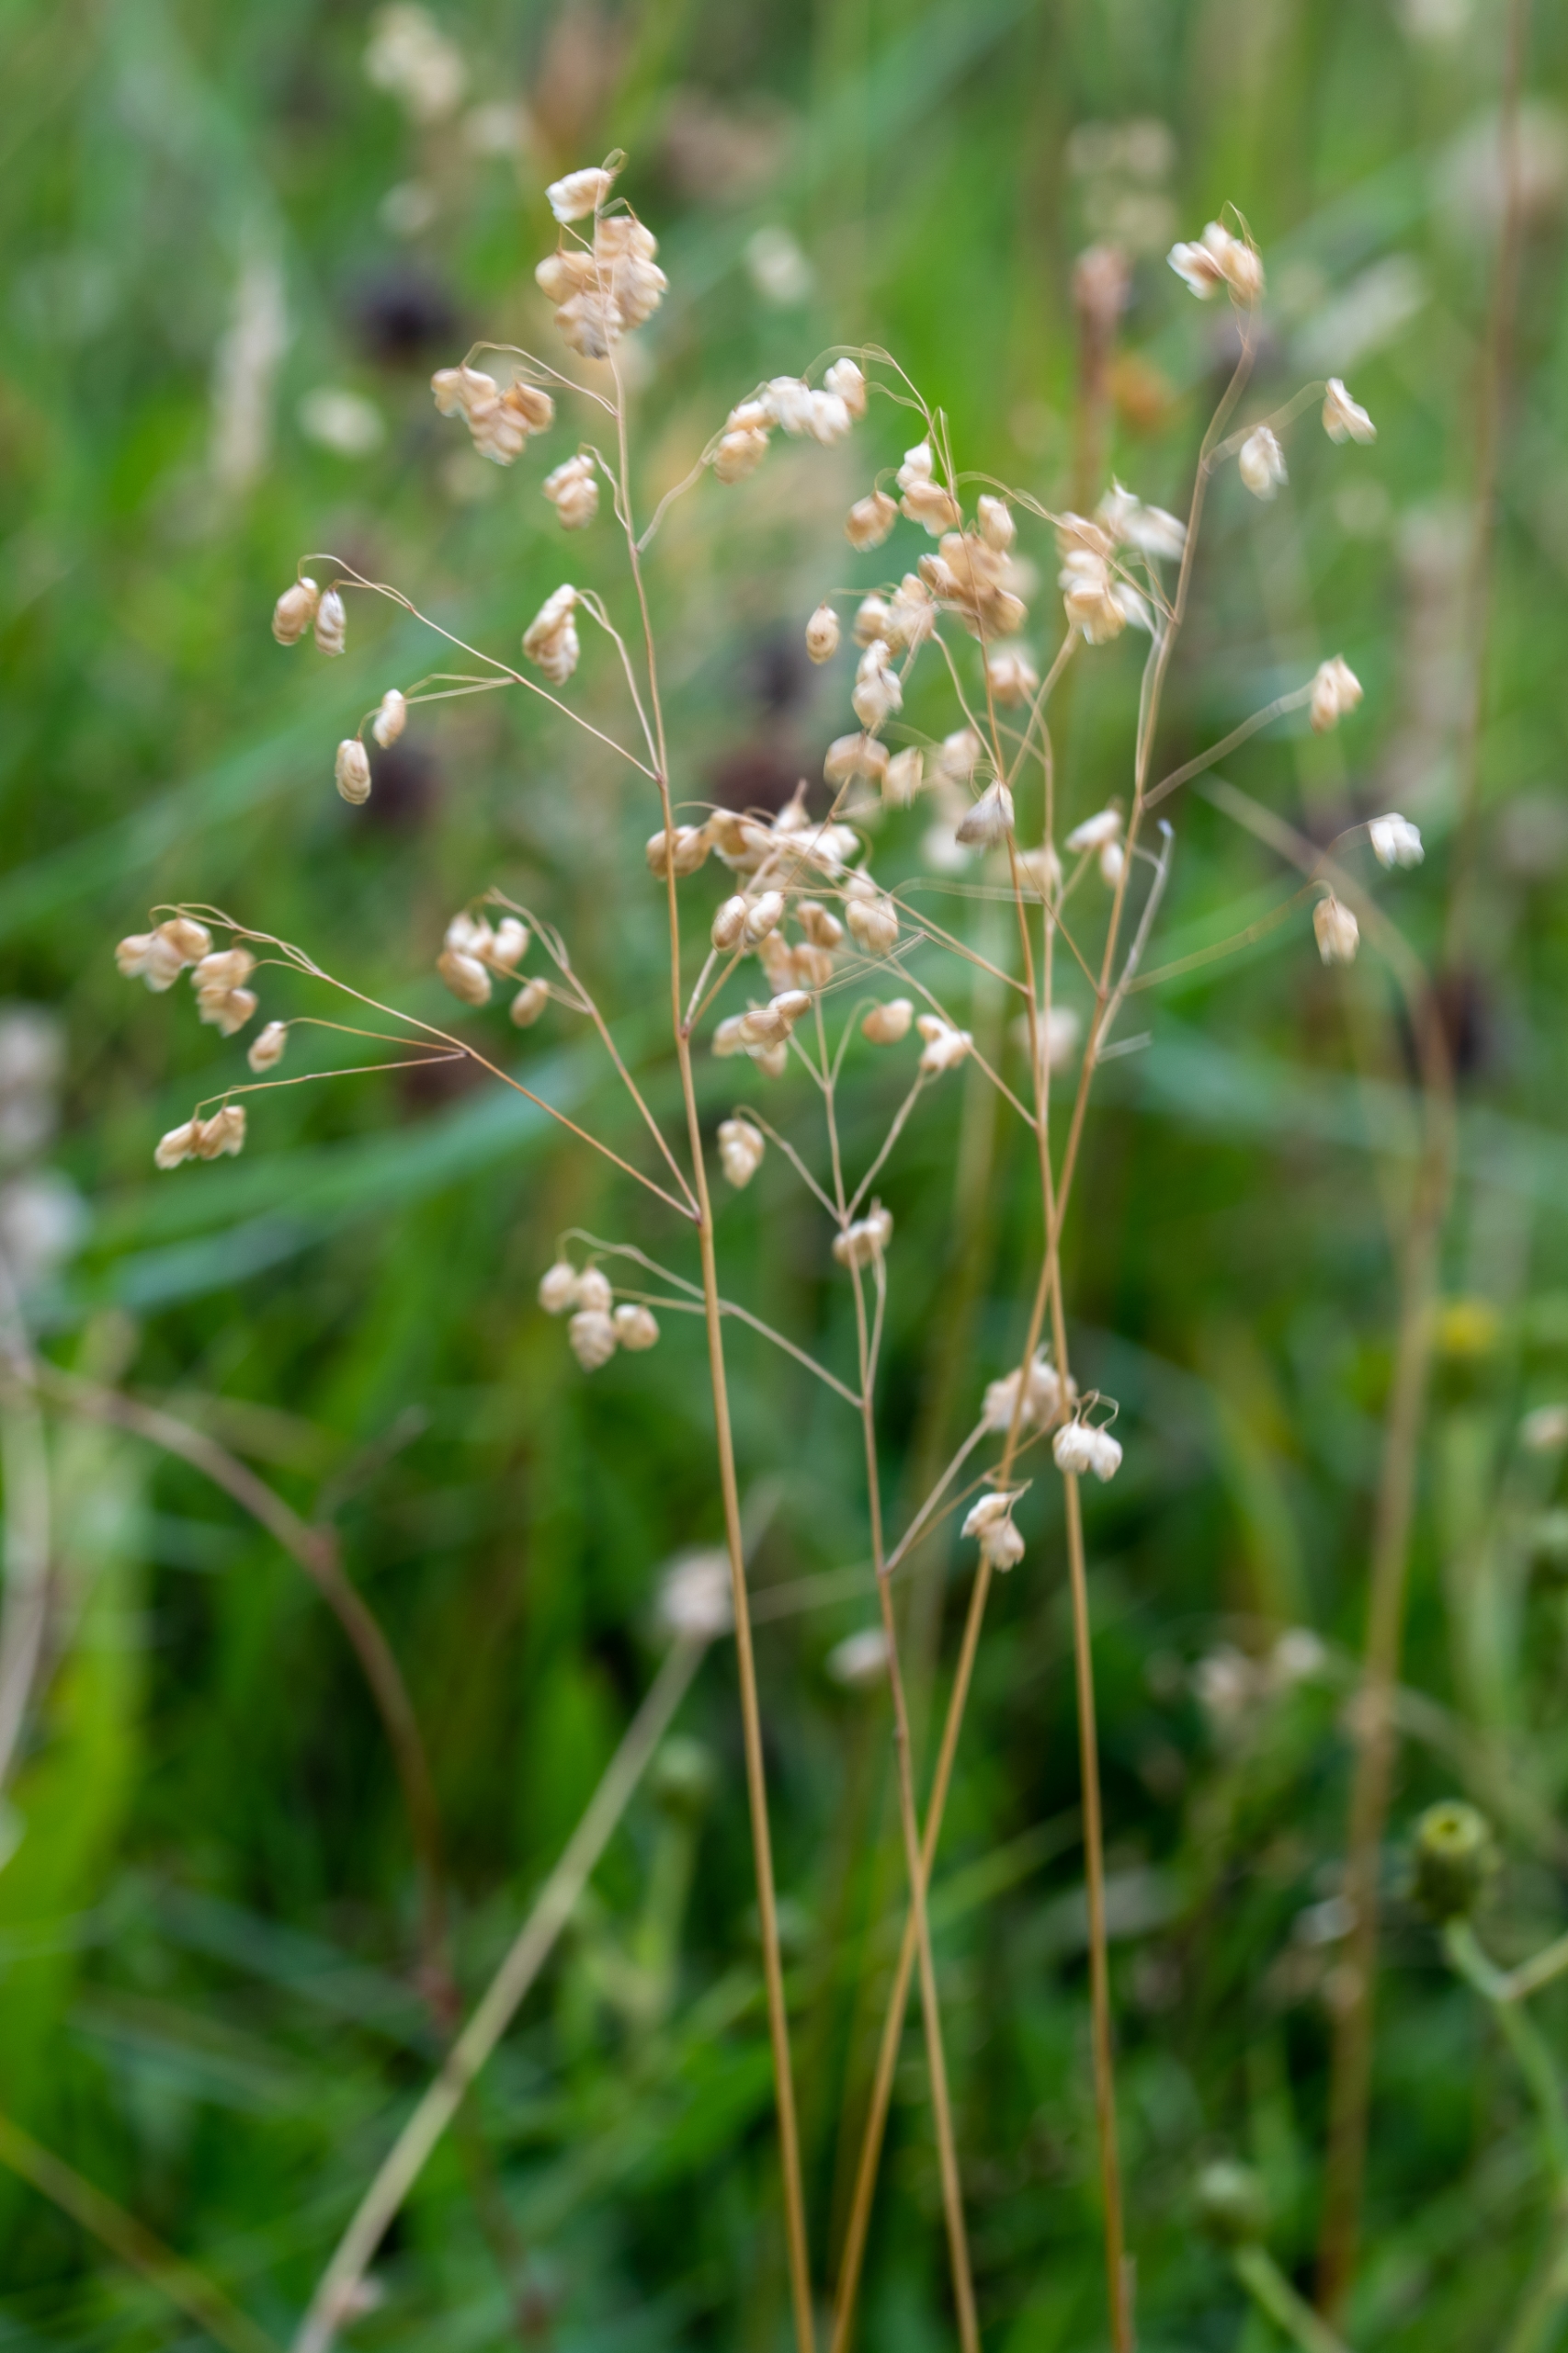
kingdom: Plantae
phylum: Tracheophyta
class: Liliopsida
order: Poales
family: Poaceae
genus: Briza
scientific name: Briza media
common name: Hjertegræs
